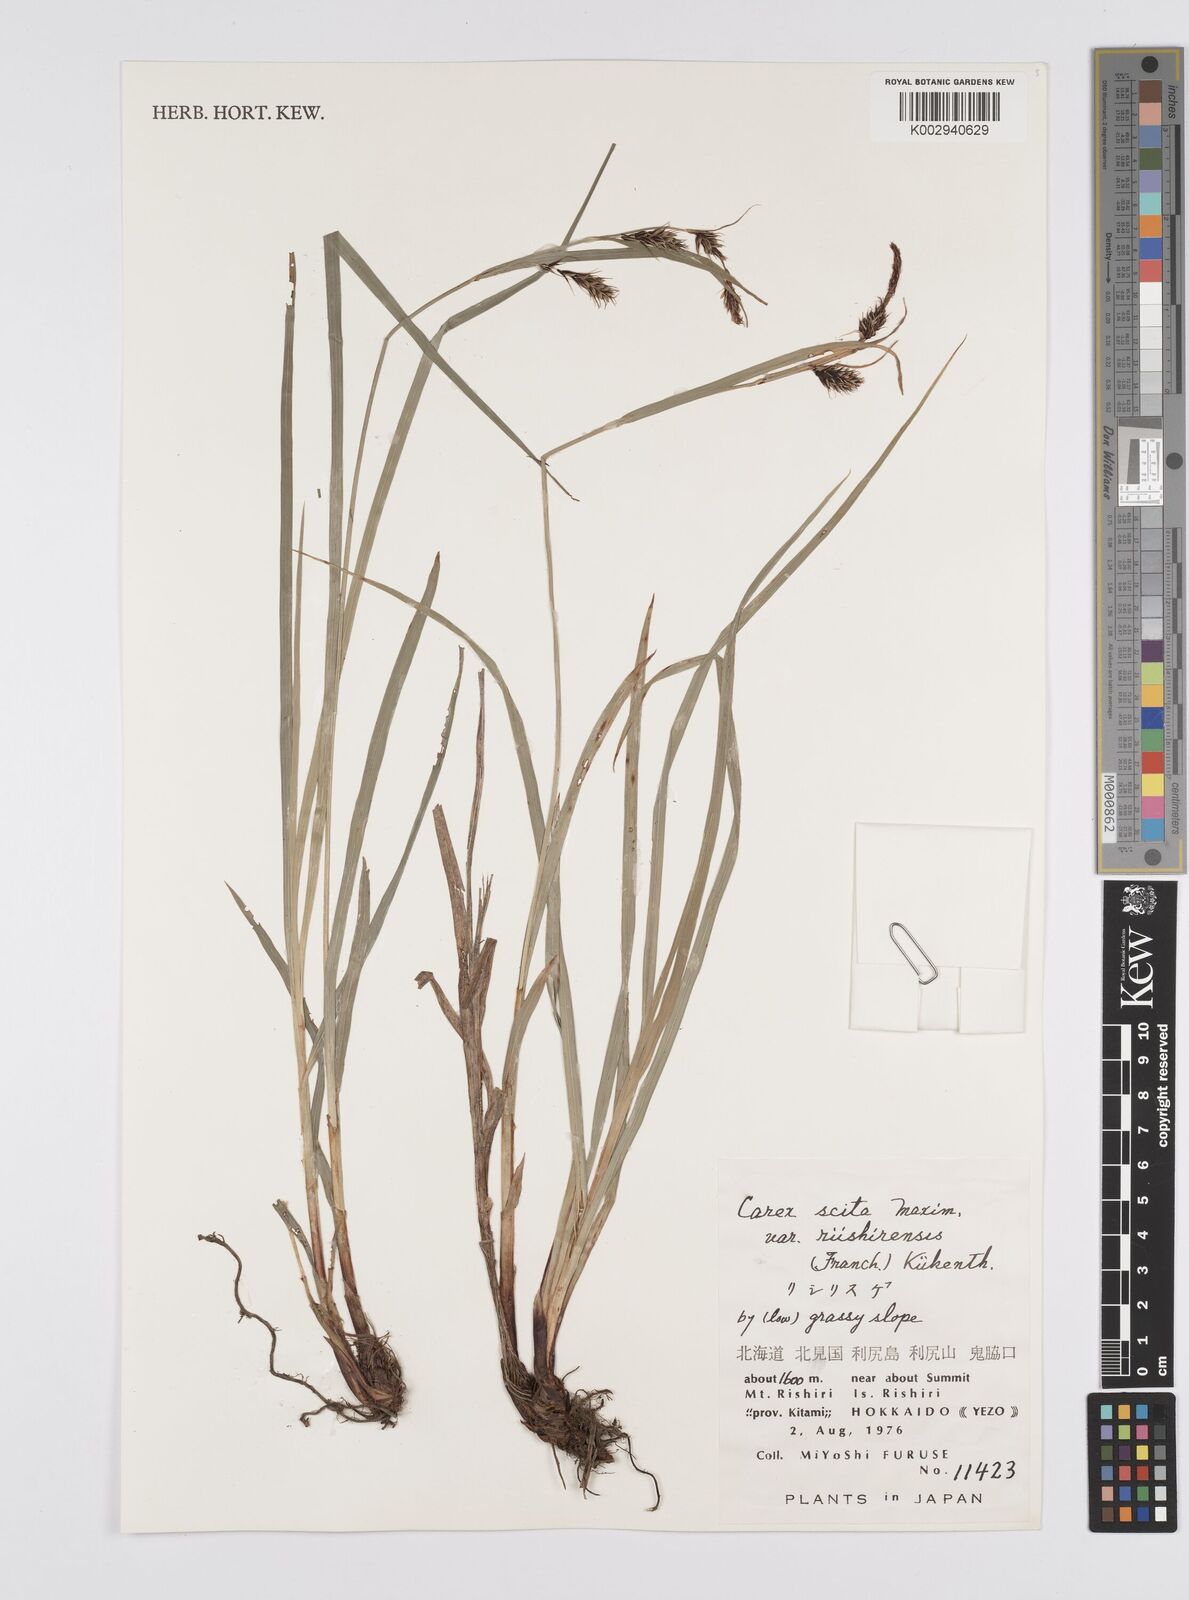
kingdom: Plantae
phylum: Tracheophyta
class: Liliopsida
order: Poales
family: Cyperaceae
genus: Carex
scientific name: Carex scita
